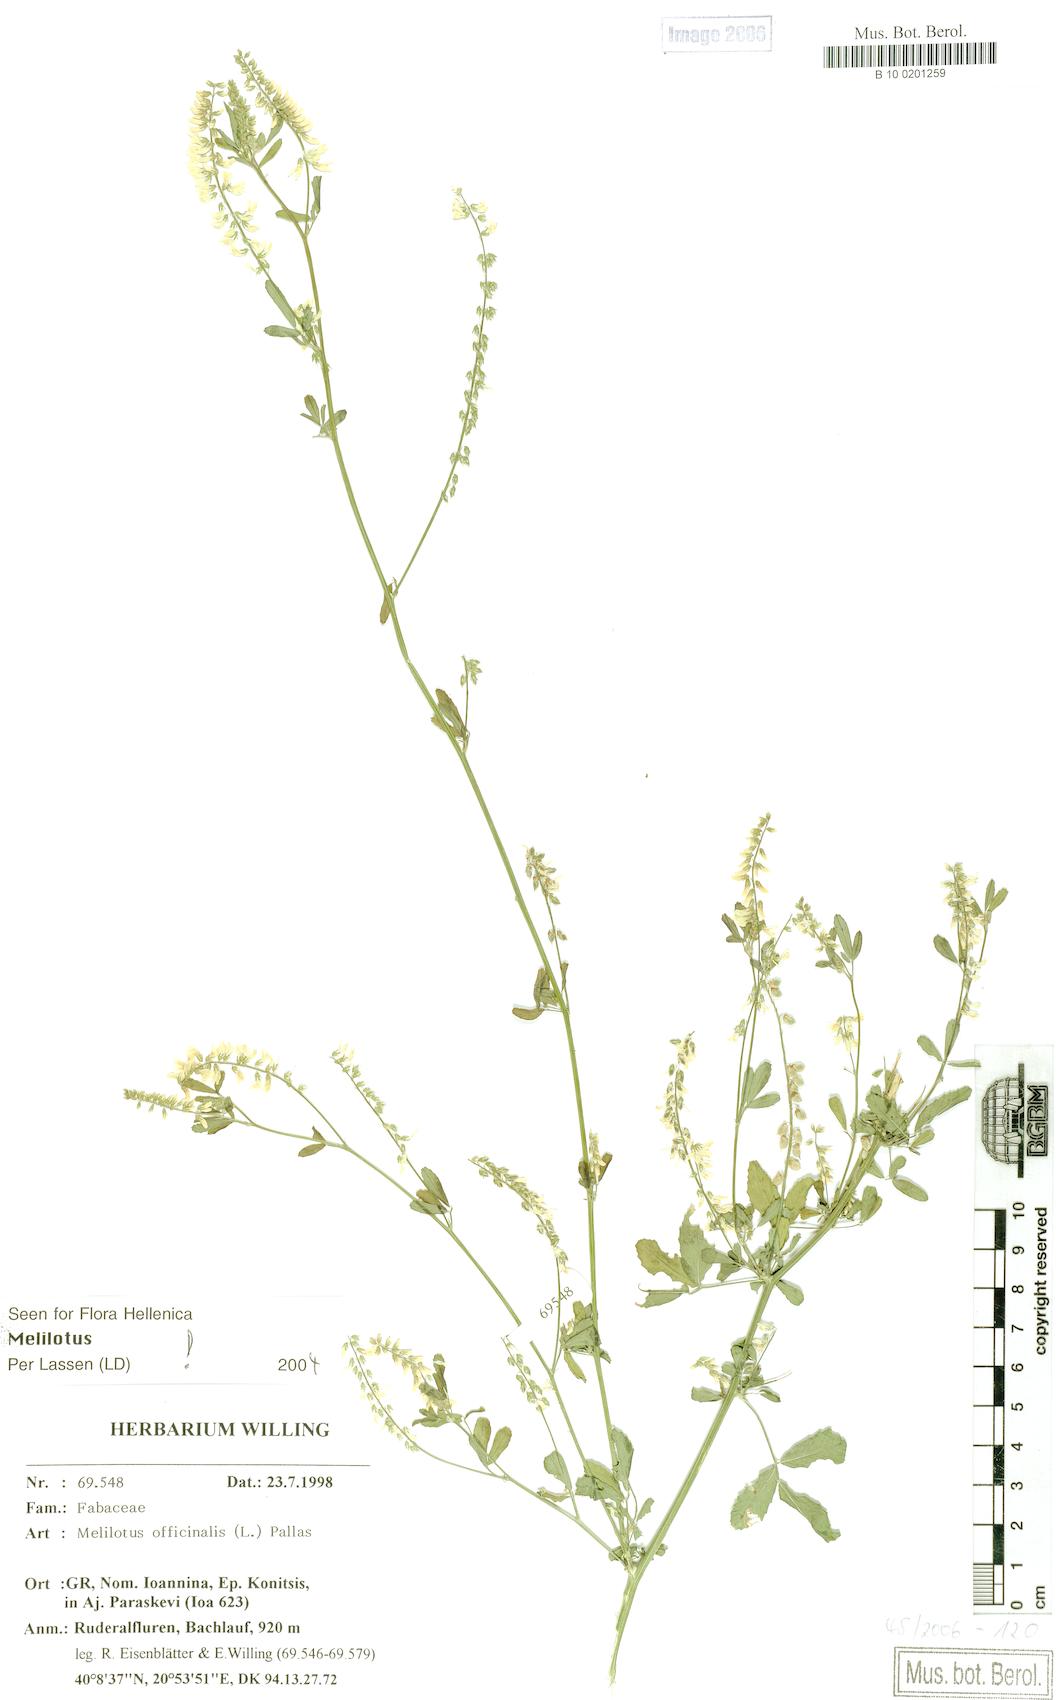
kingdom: Plantae
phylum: Tracheophyta
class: Magnoliopsida
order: Fabales
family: Fabaceae
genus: Melilotus
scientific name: Melilotus officinalis
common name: Sweetclover
